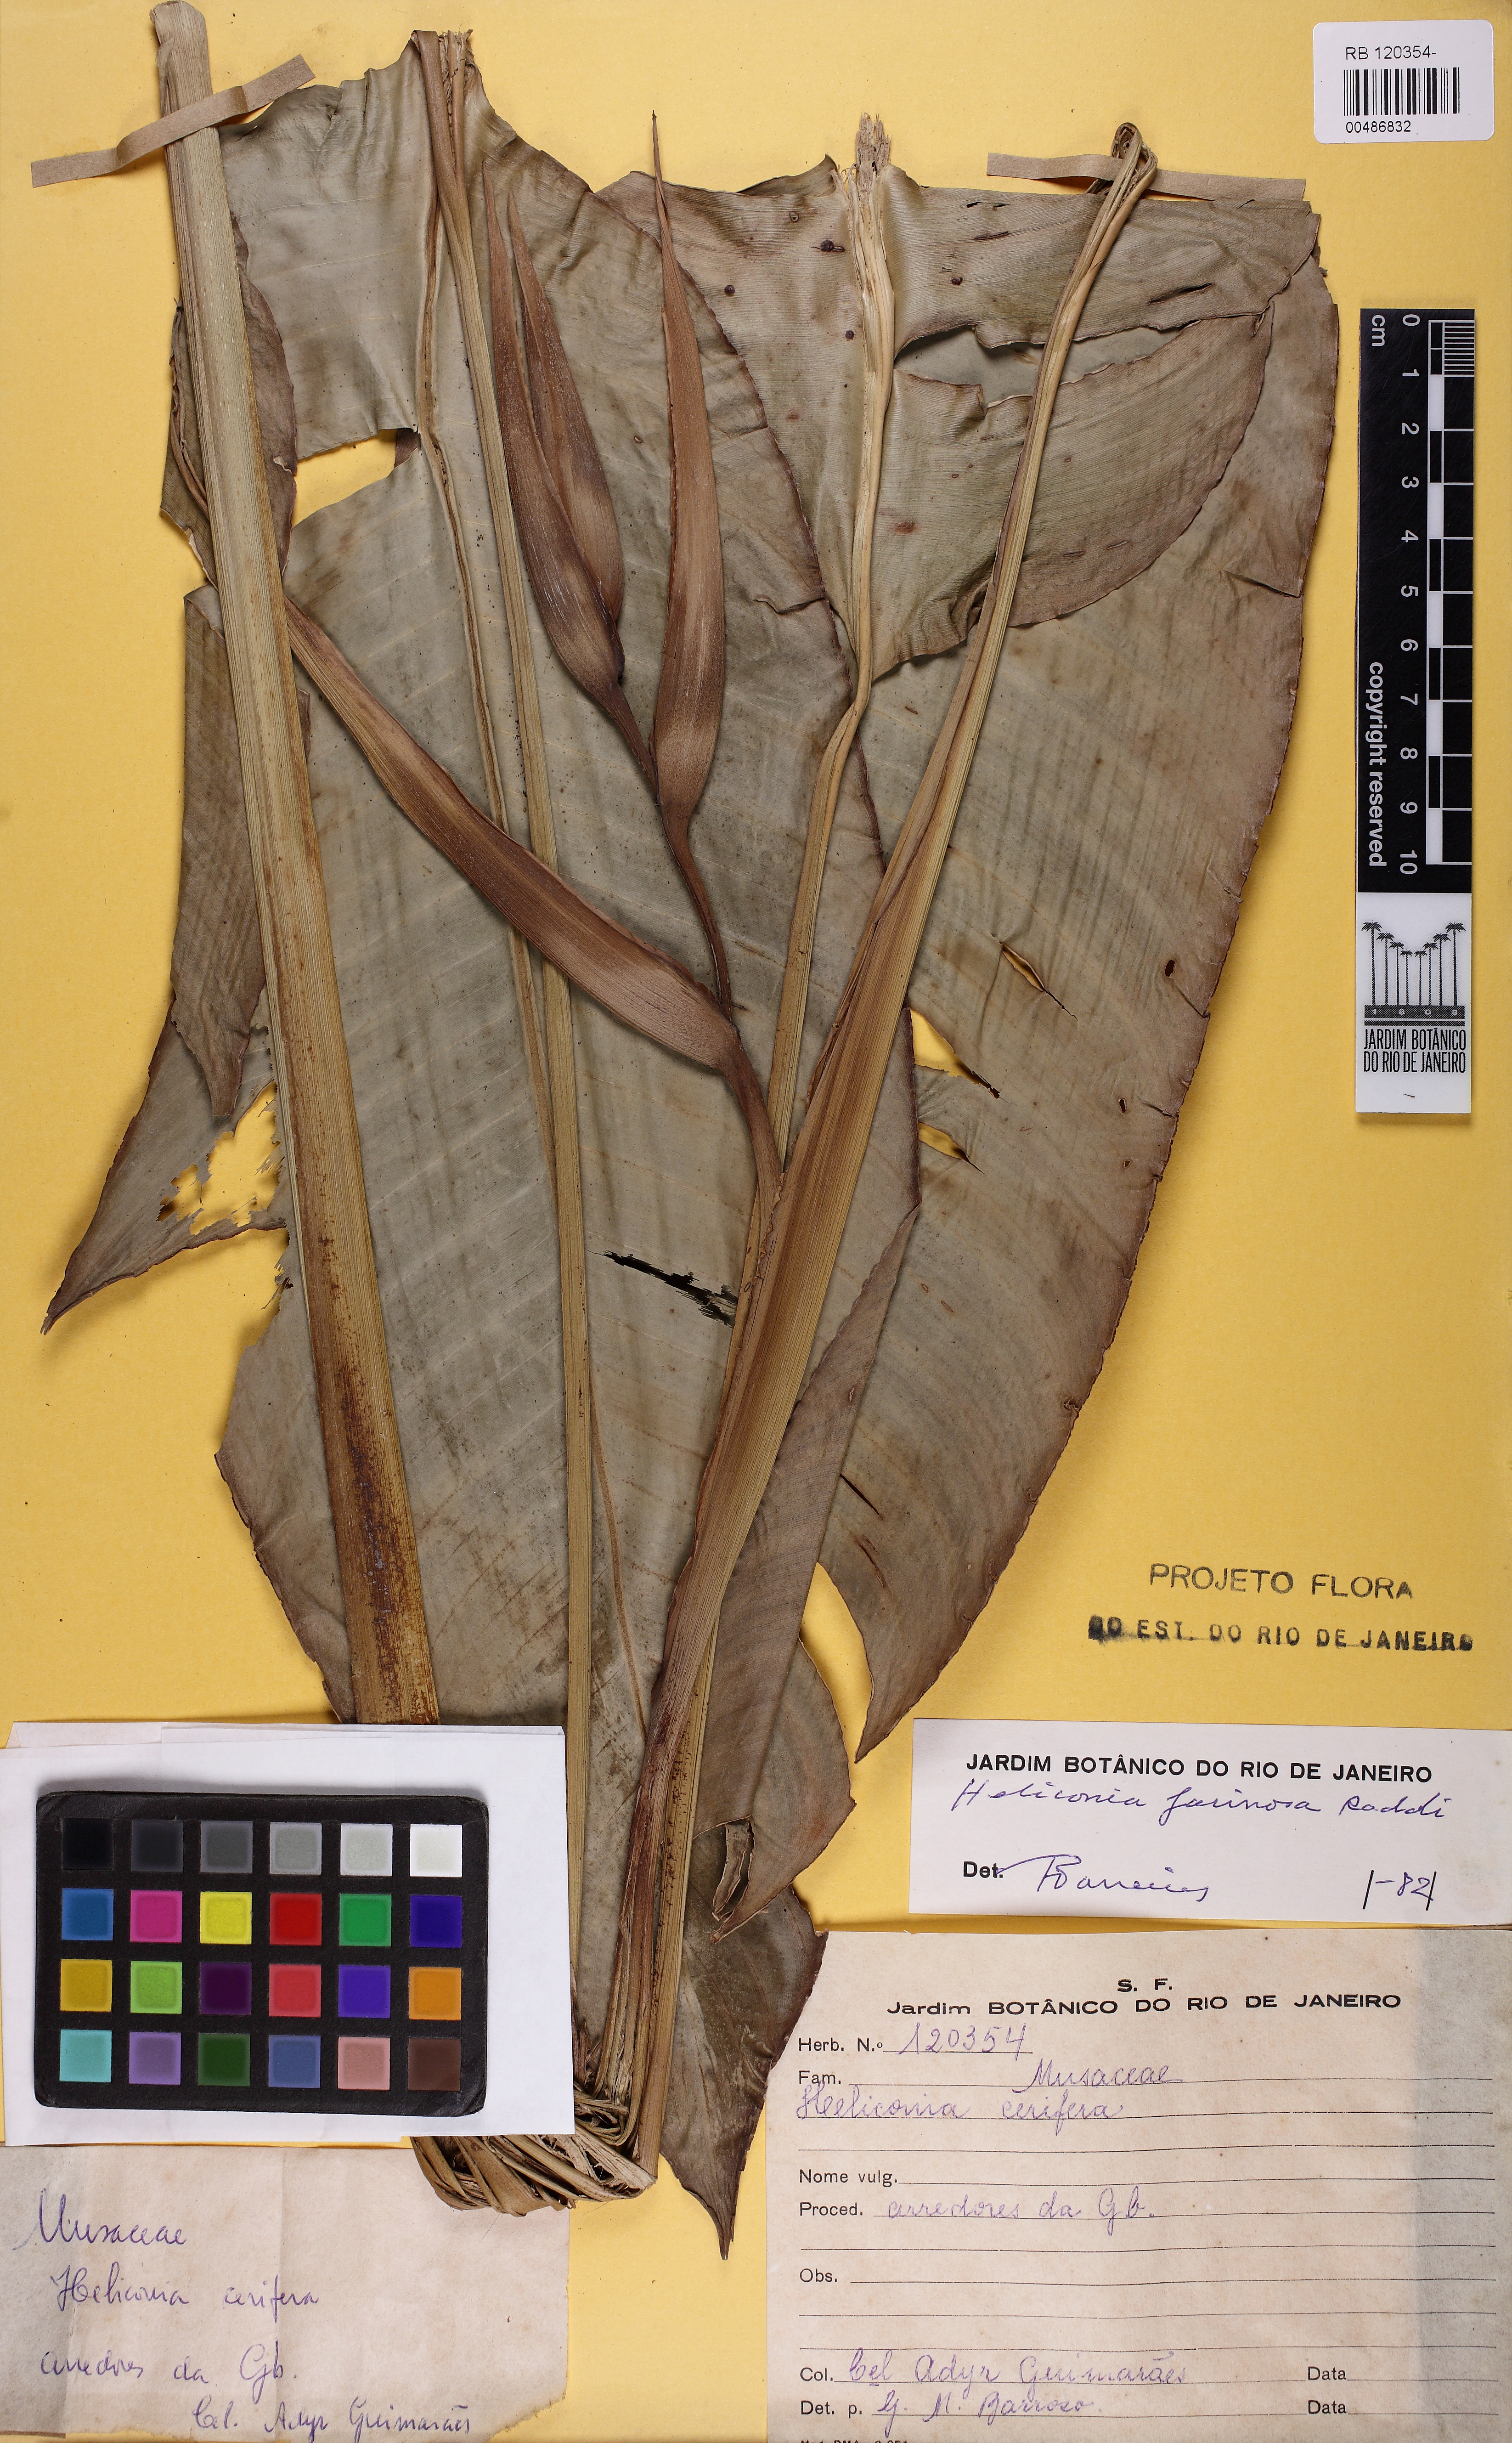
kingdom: Plantae
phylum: Tracheophyta
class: Liliopsida
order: Zingiberales
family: Heliconiaceae
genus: Heliconia
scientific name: Heliconia angusta
